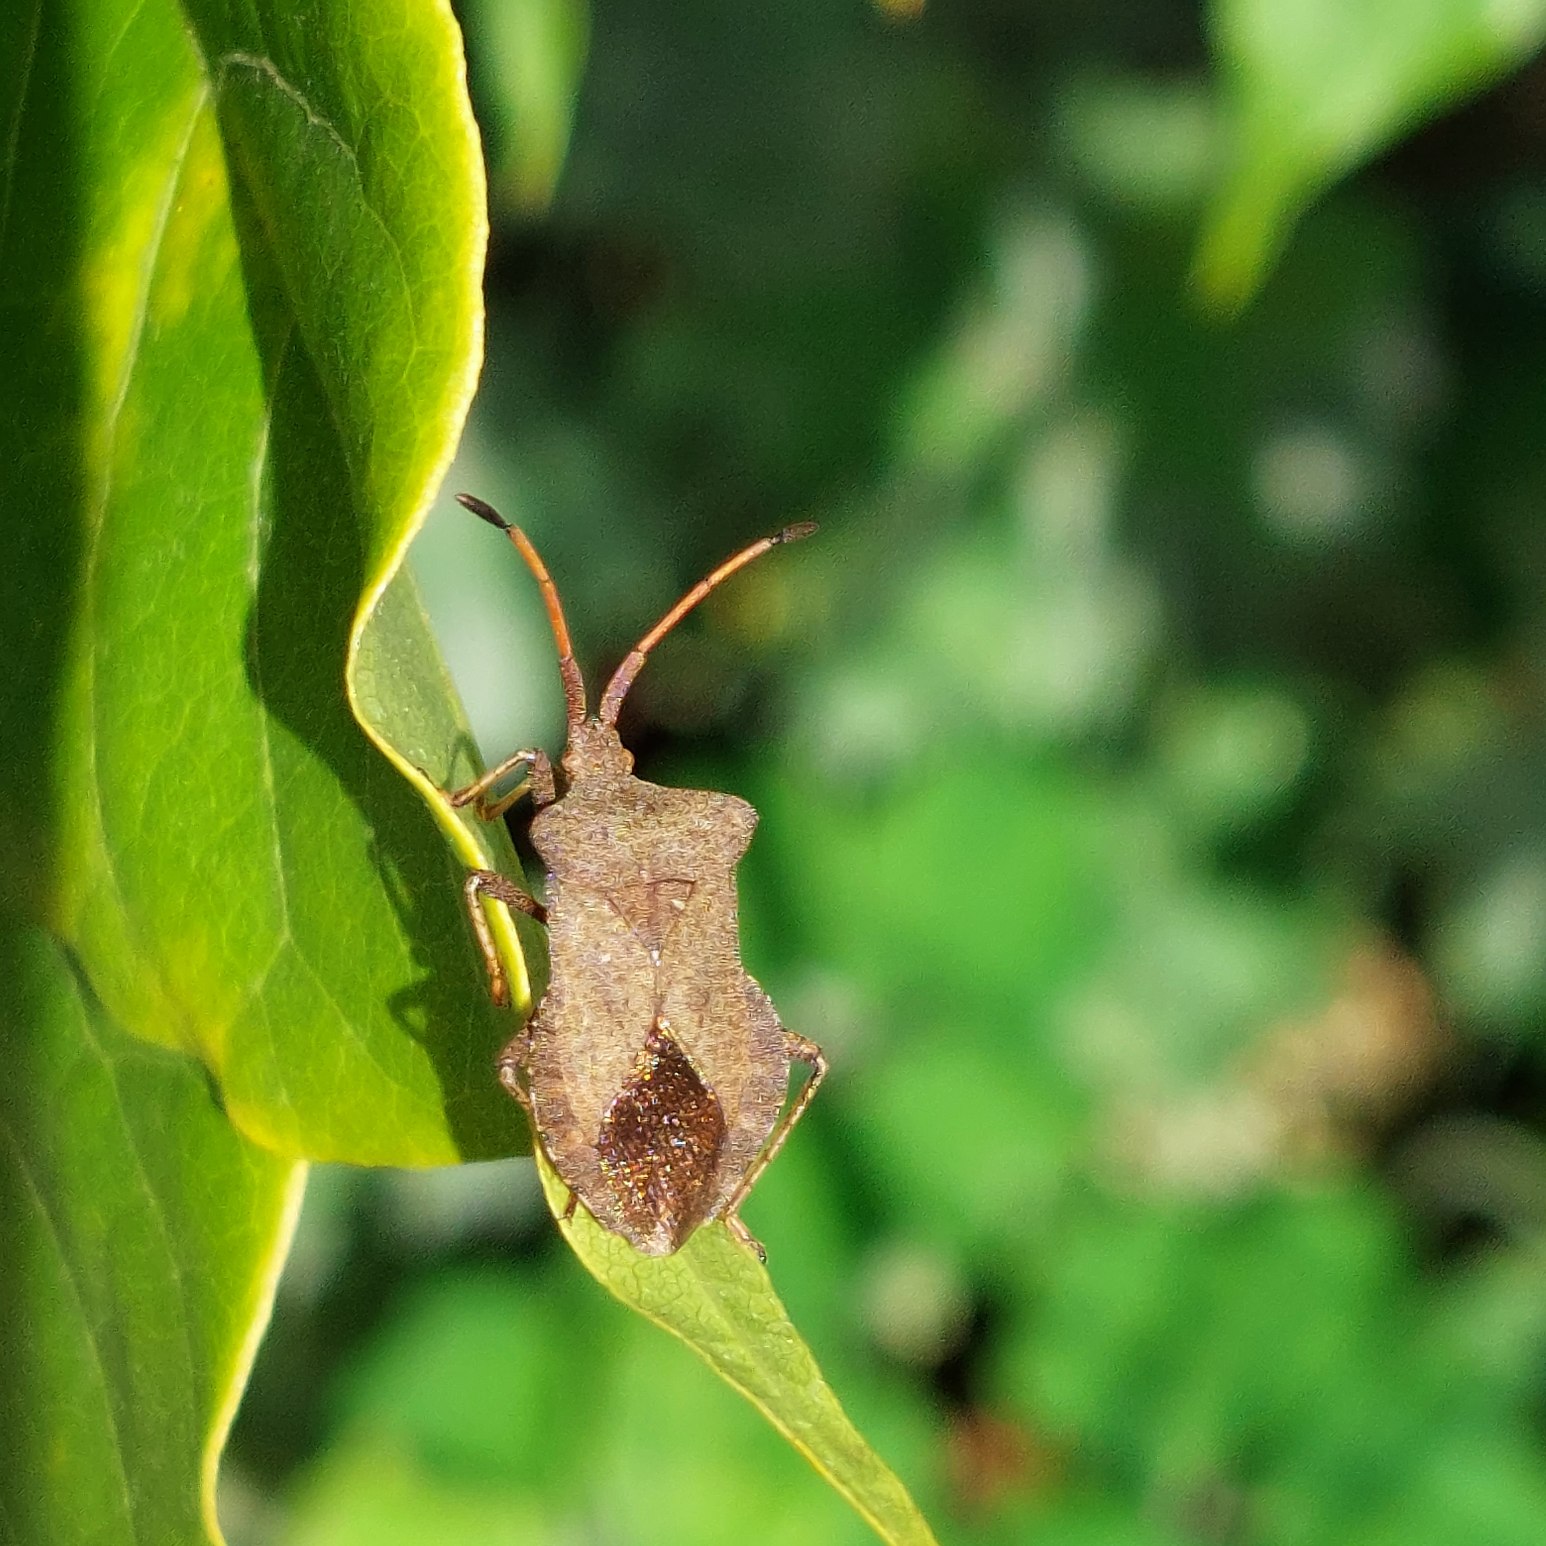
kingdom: Animalia
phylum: Arthropoda
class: Insecta
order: Hemiptera
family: Coreidae
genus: Coreus
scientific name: Coreus marginatus
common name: Skræppetæge
